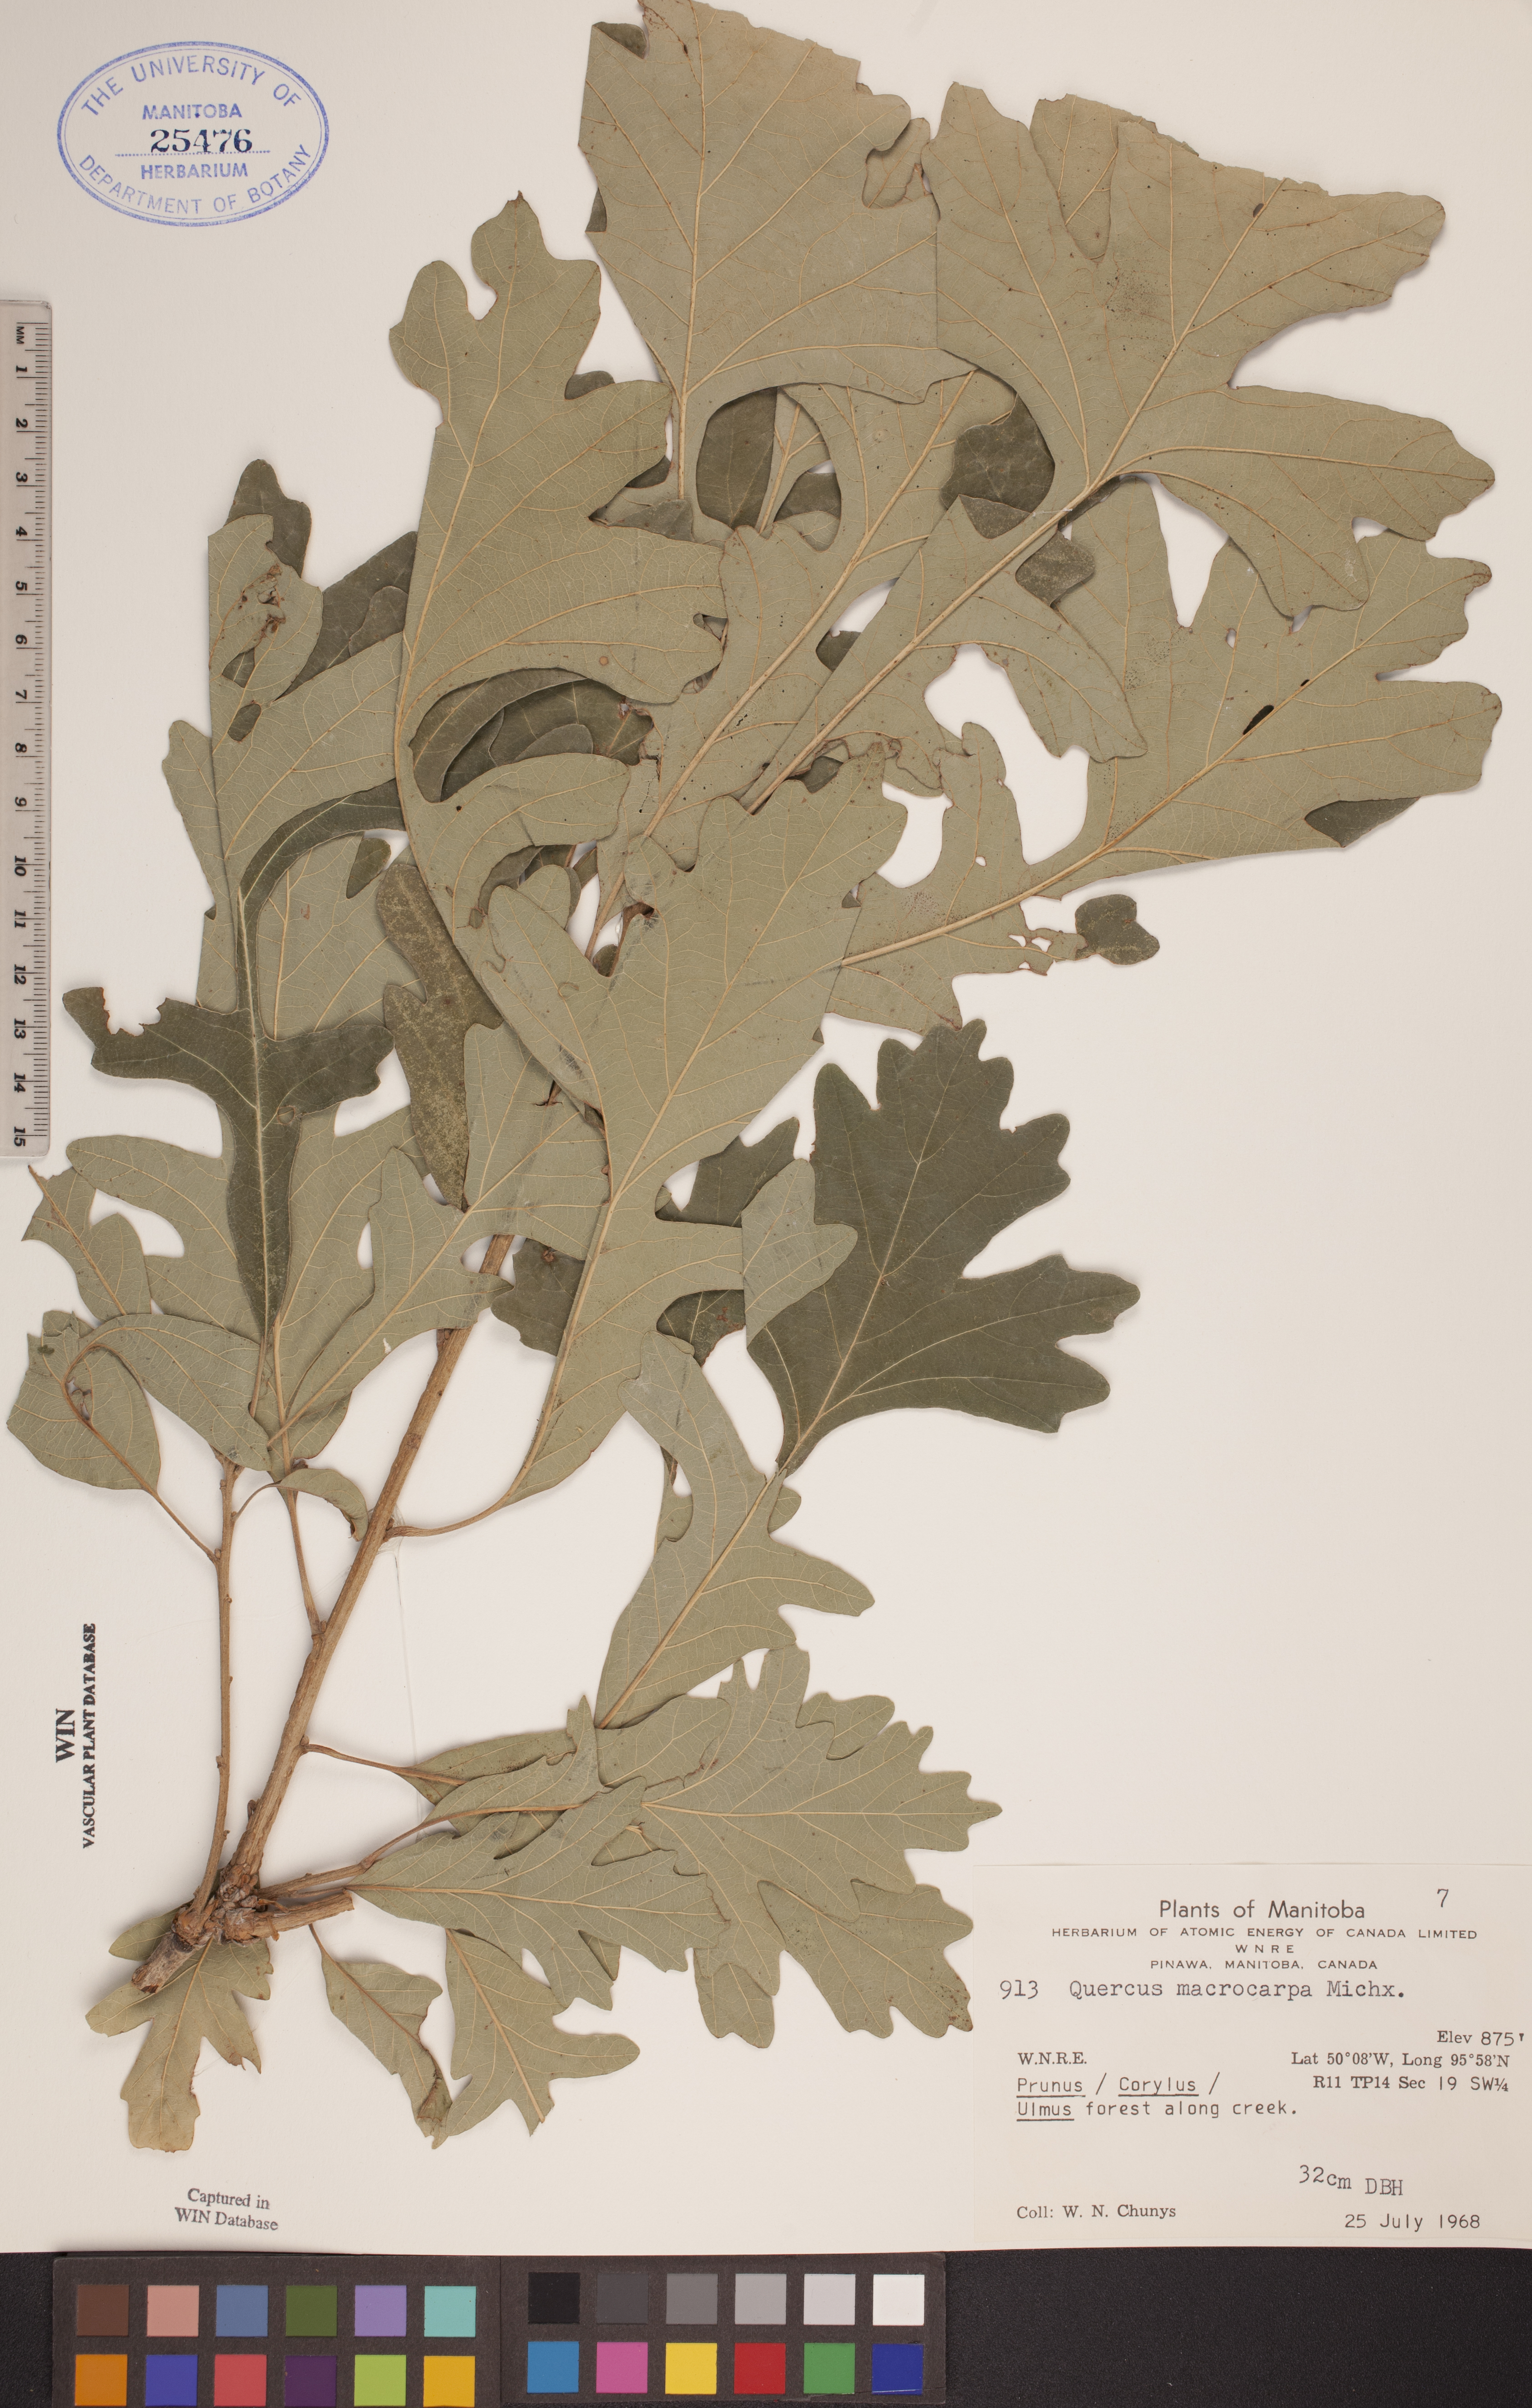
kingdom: Plantae
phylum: Tracheophyta
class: Magnoliopsida
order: Fagales
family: Fagaceae
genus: Quercus
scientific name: Quercus macrocarpa
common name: Bur oak
